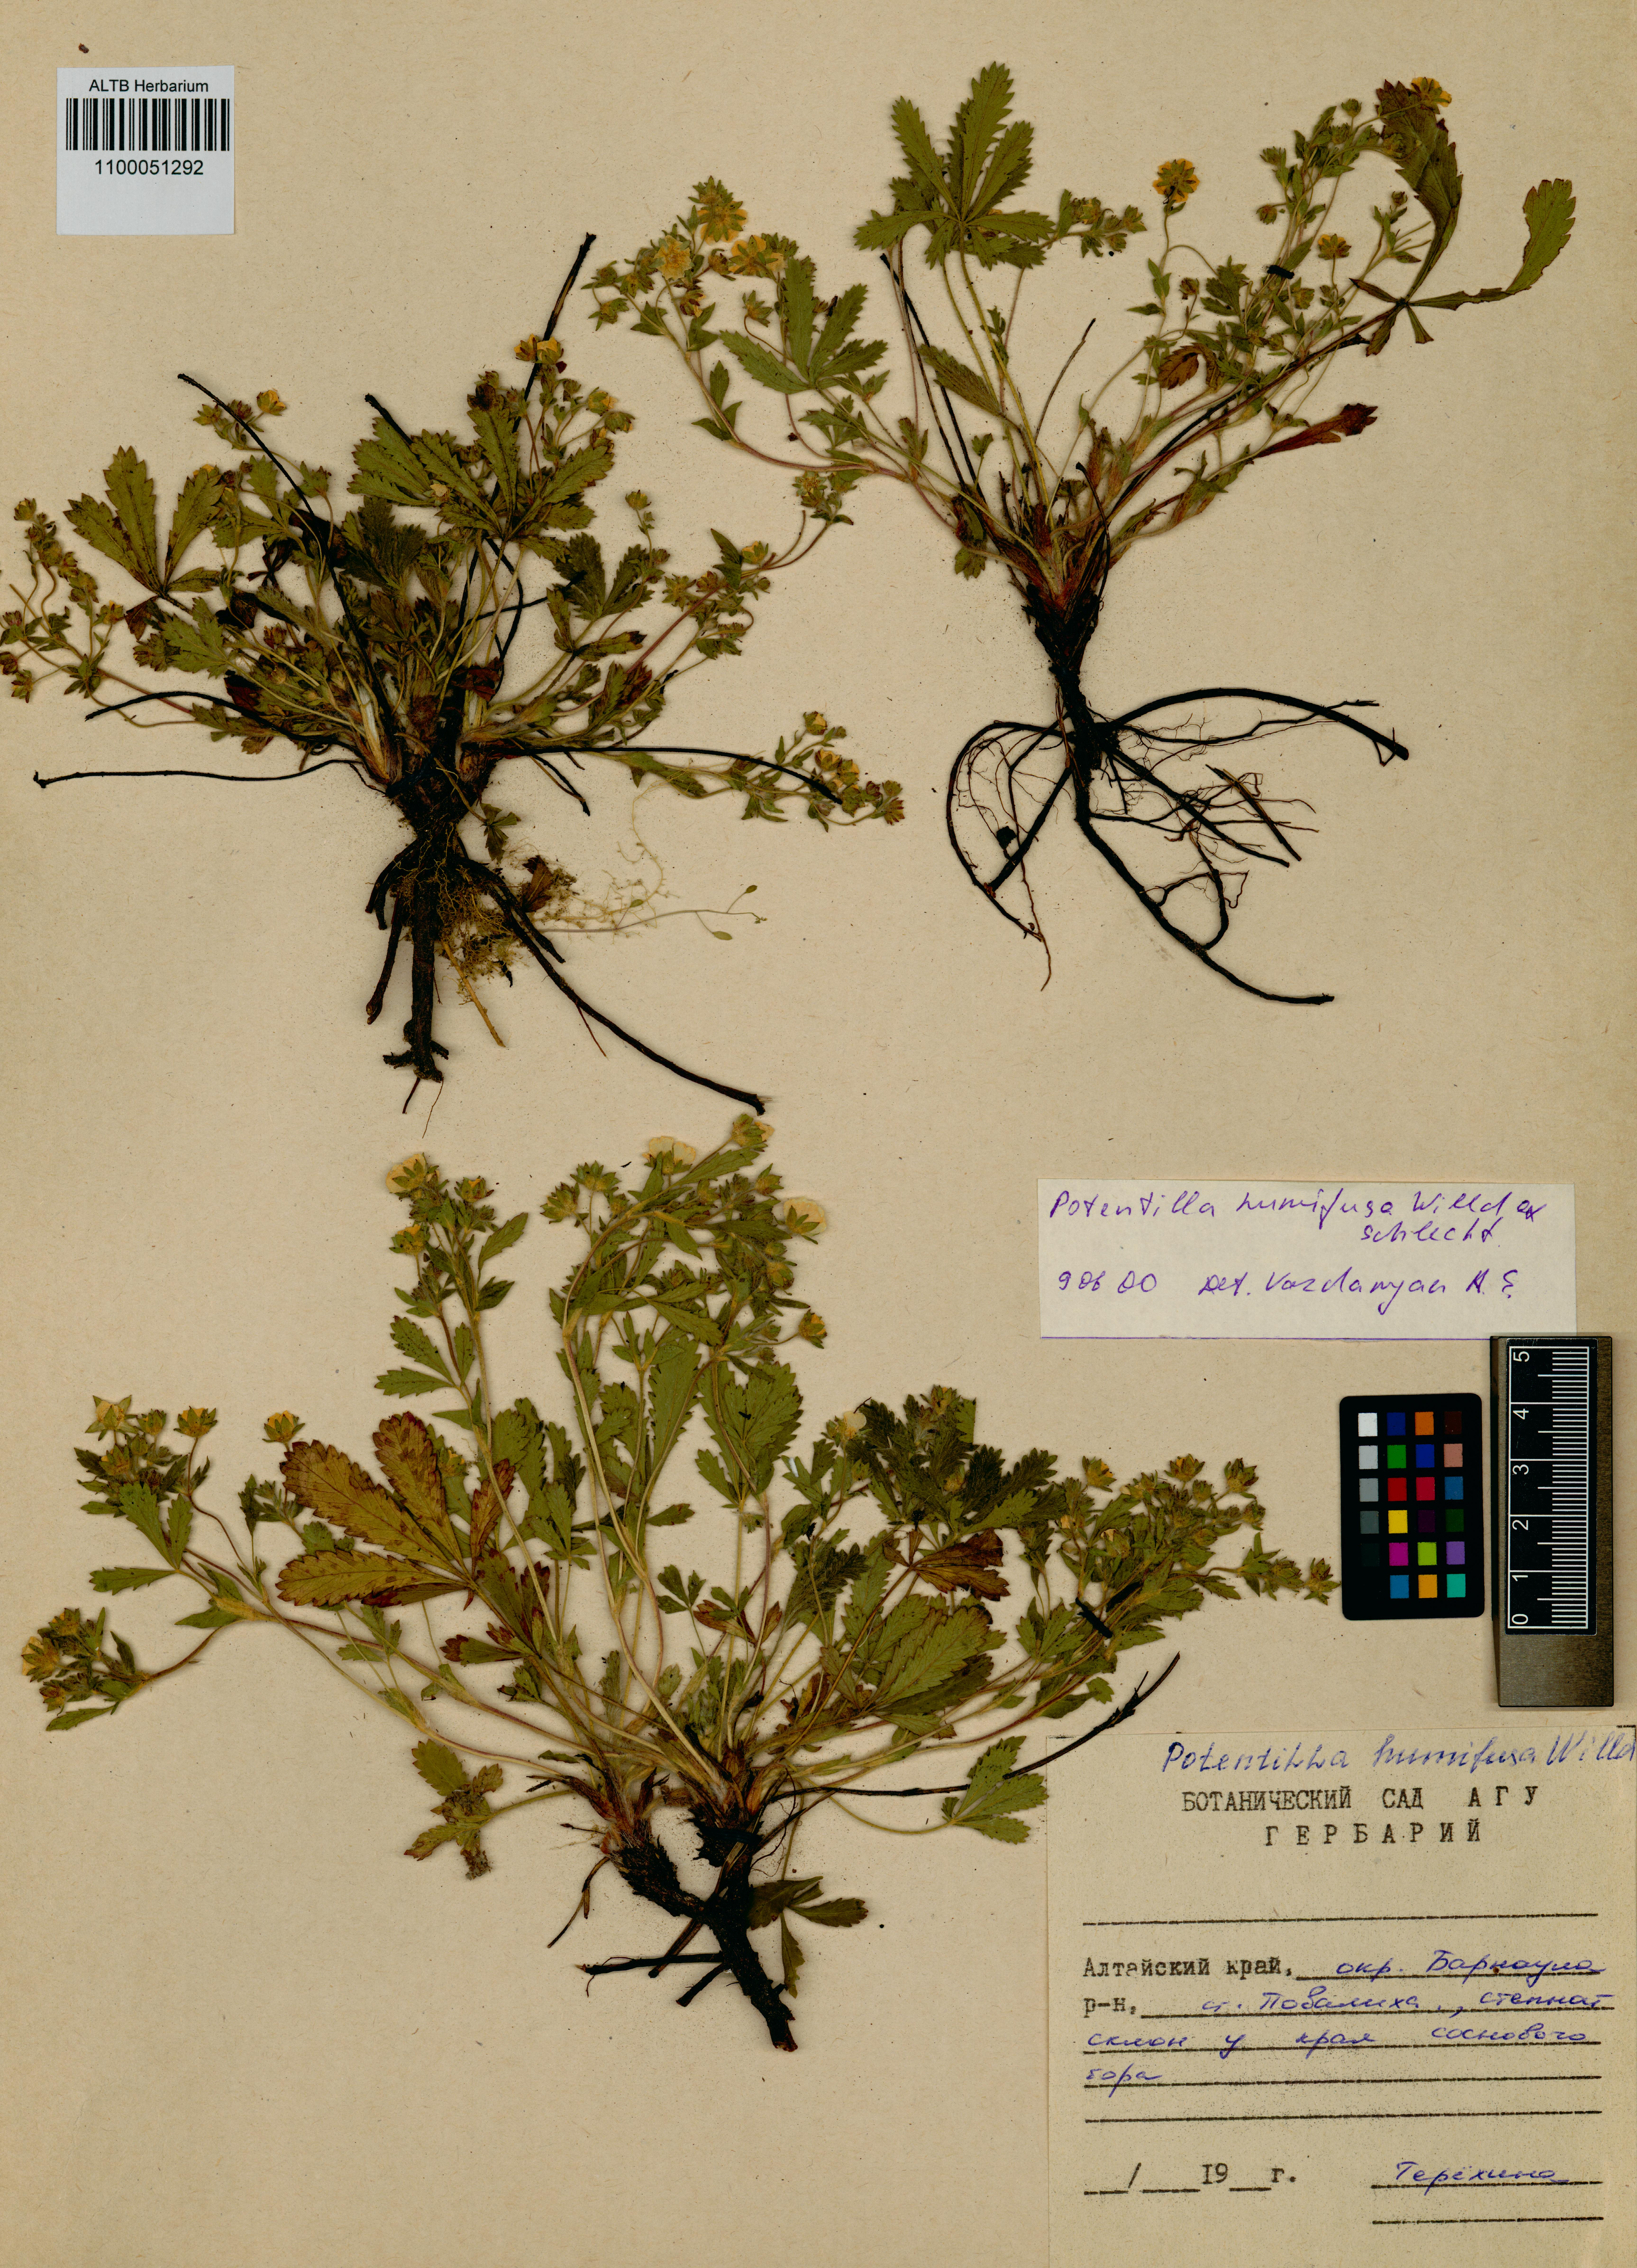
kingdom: Plantae
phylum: Tracheophyta
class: Magnoliopsida
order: Rosales
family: Rosaceae
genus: Potentilla
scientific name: Potentilla humifusa
